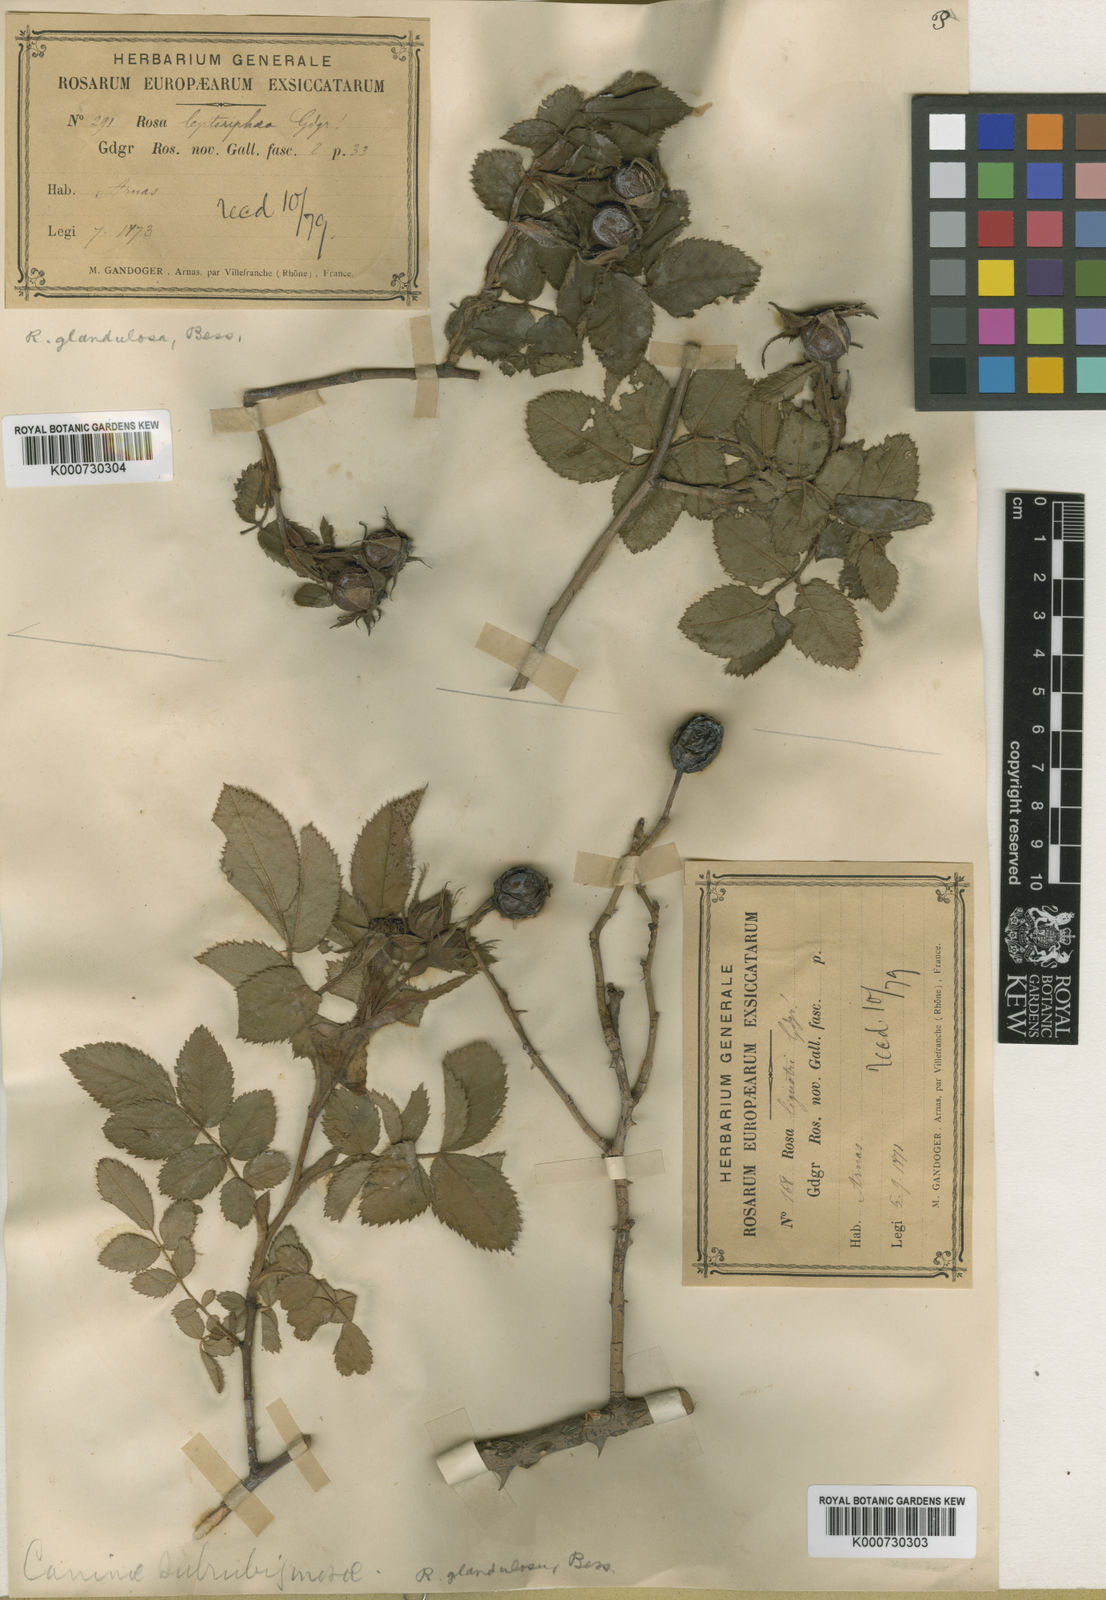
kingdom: Plantae
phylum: Tracheophyta
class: Magnoliopsida
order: Rosales
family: Rosaceae
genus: Rosa
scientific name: Rosa marginata
